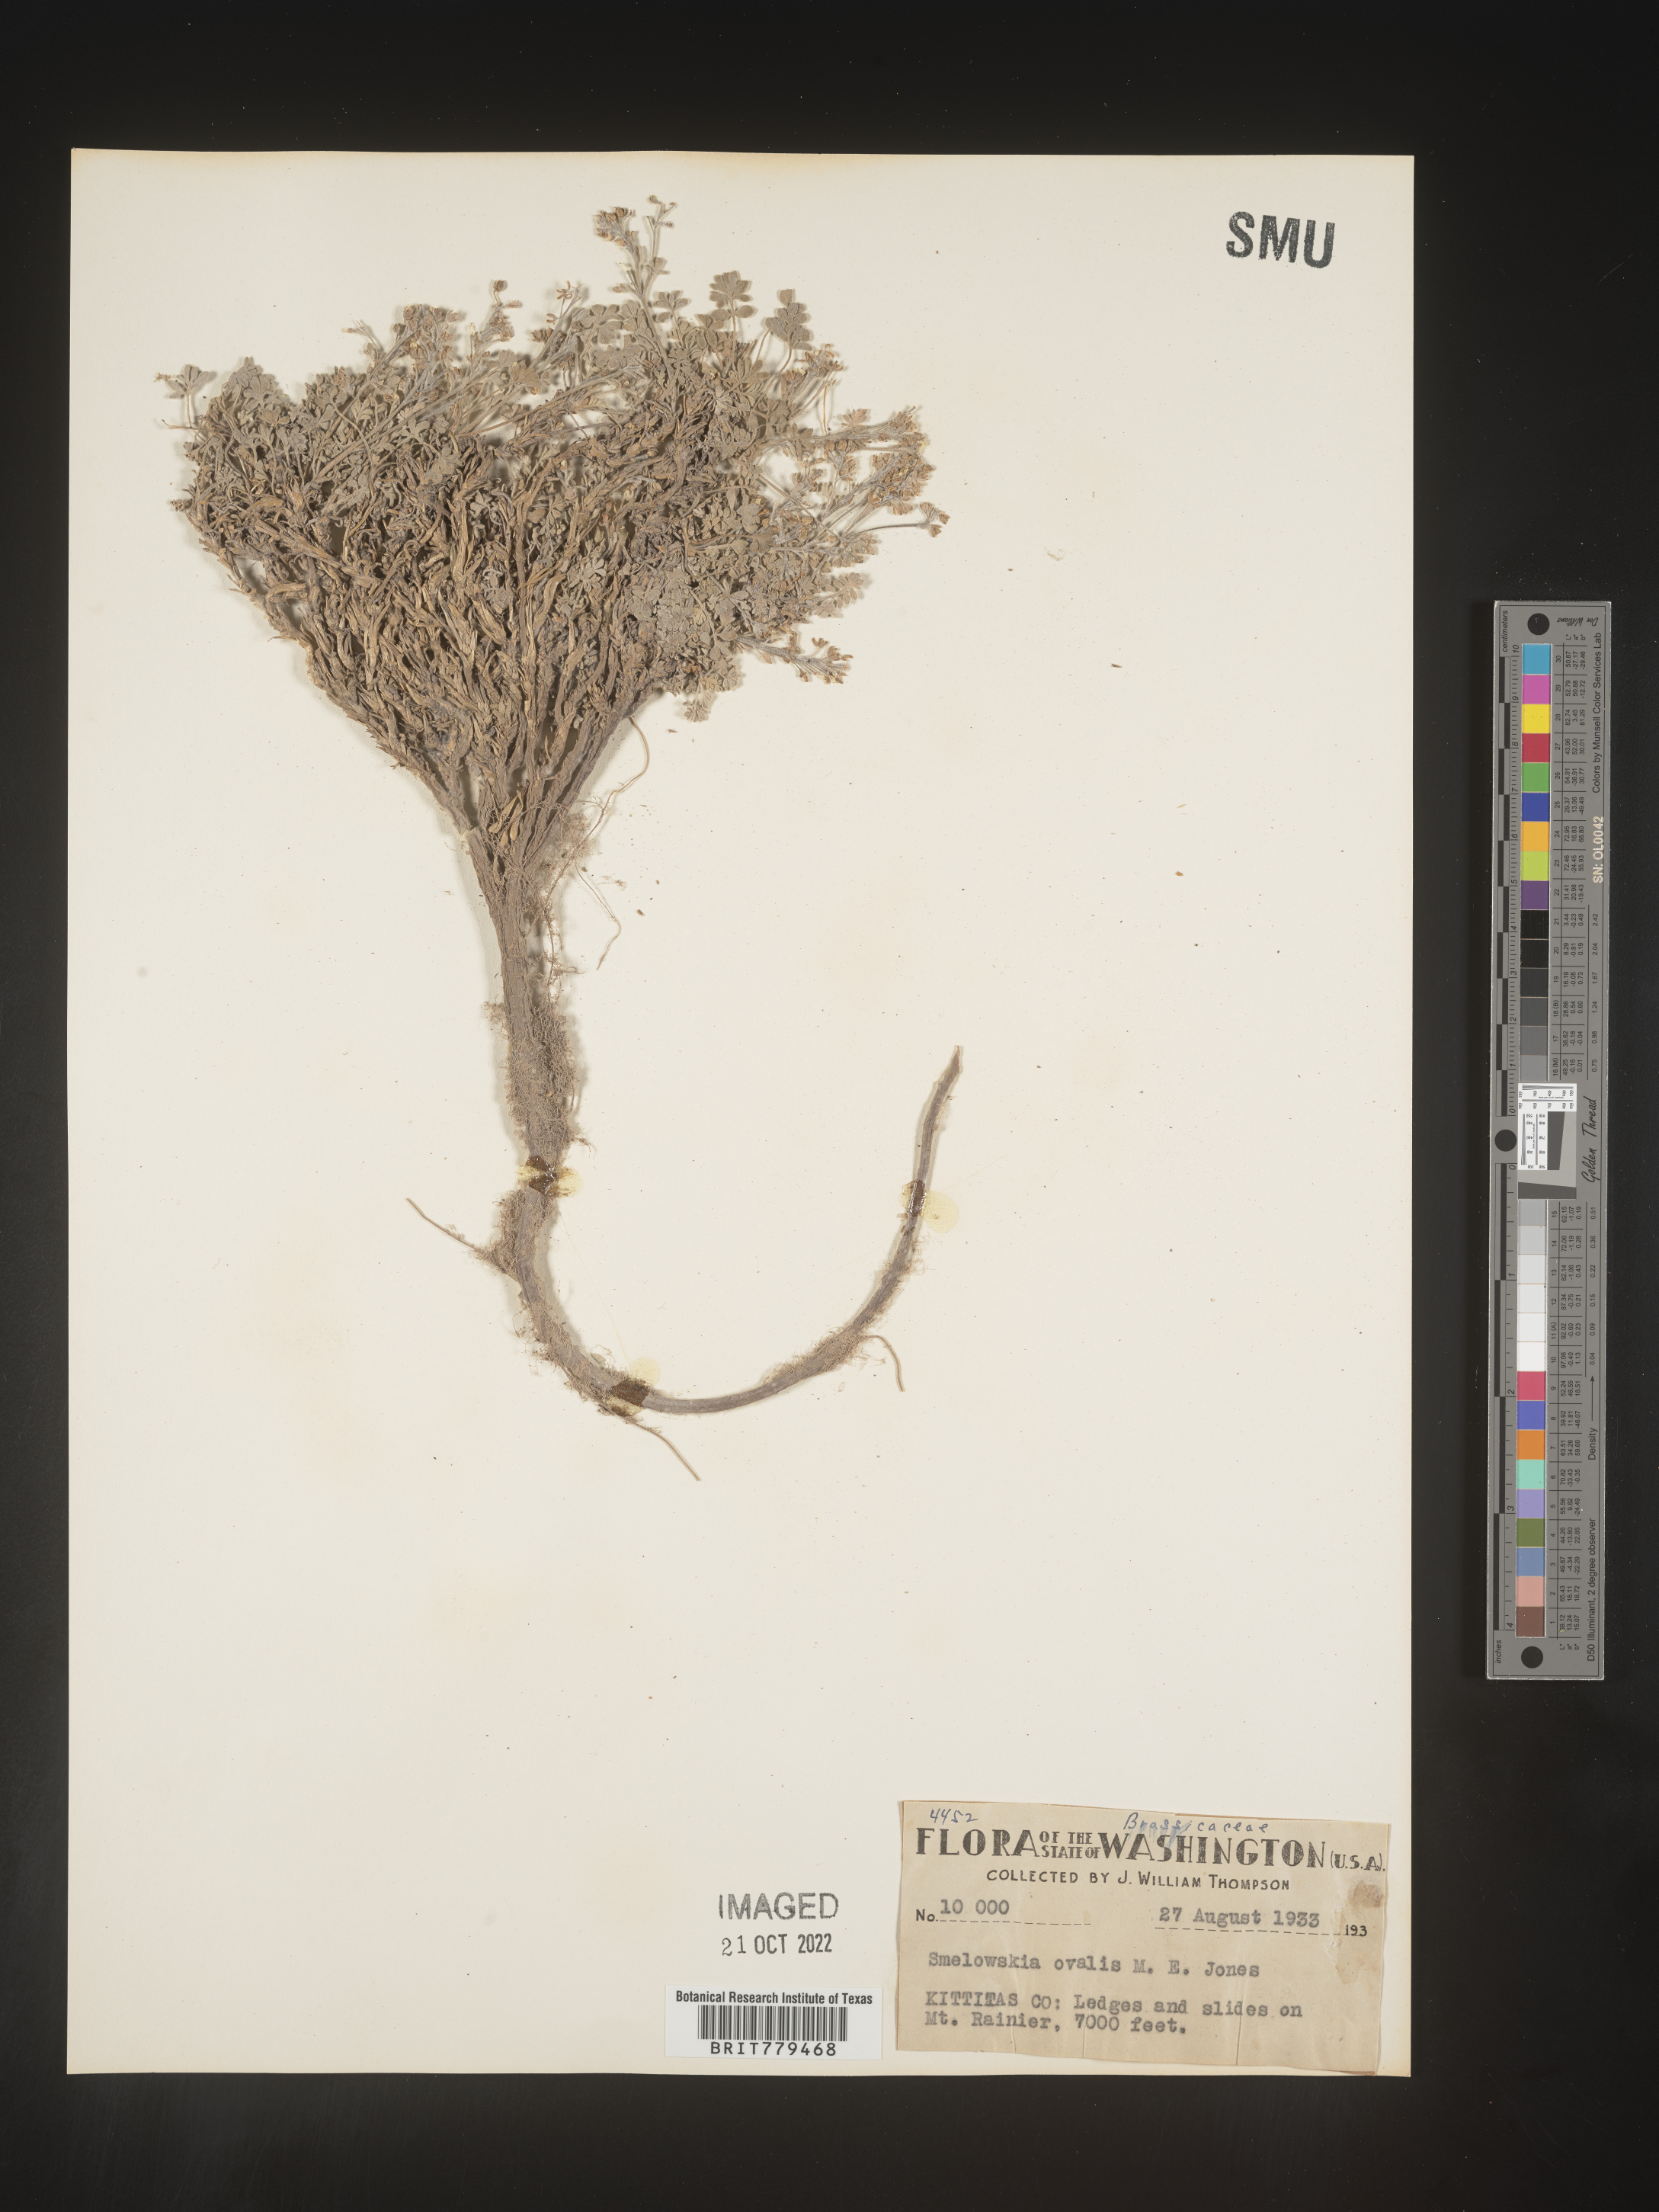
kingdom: Plantae
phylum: Tracheophyta
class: Magnoliopsida
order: Brassicales
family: Brassicaceae
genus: Smelowskia
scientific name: Smelowskia
